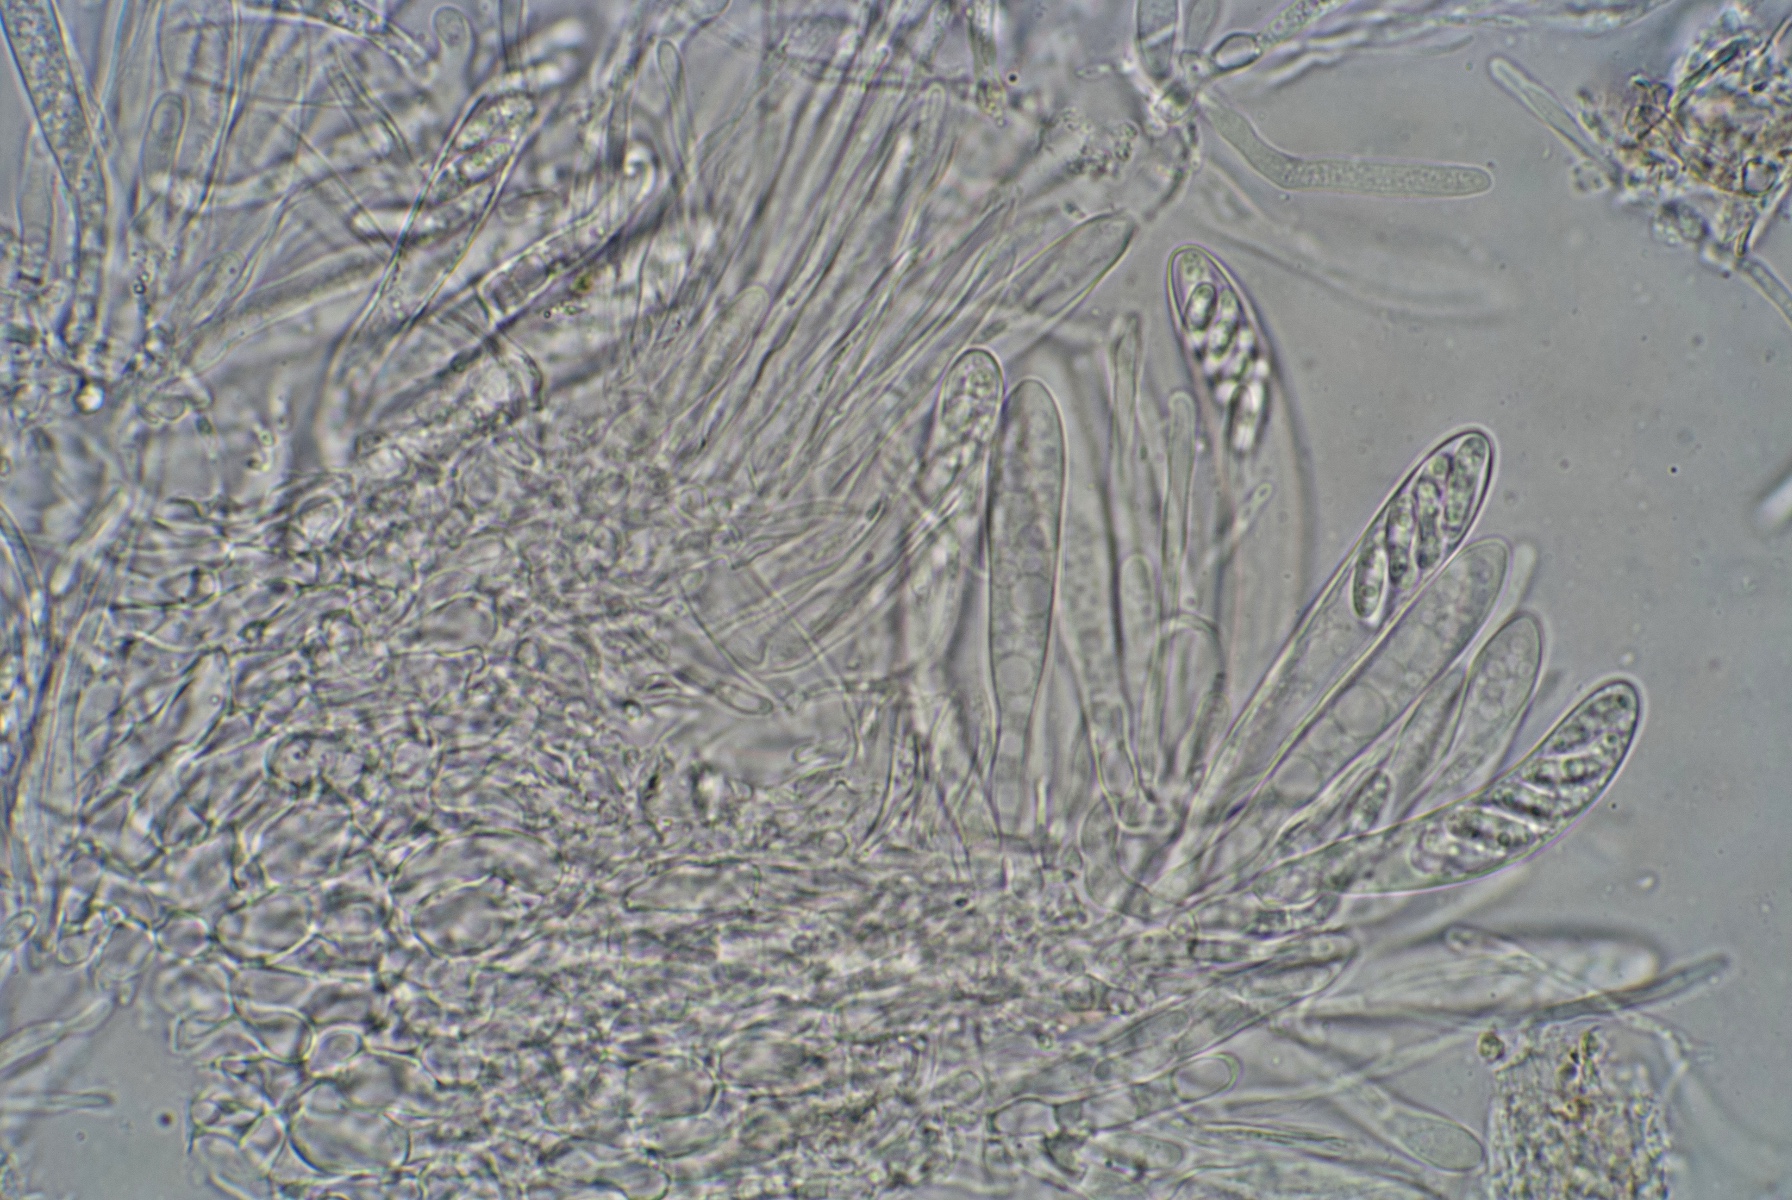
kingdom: Fungi
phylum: Ascomycota
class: Leotiomycetes
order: Helotiales
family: Hyaloscyphaceae
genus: Hyaloscypha
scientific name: Hyaloscypha minuta
